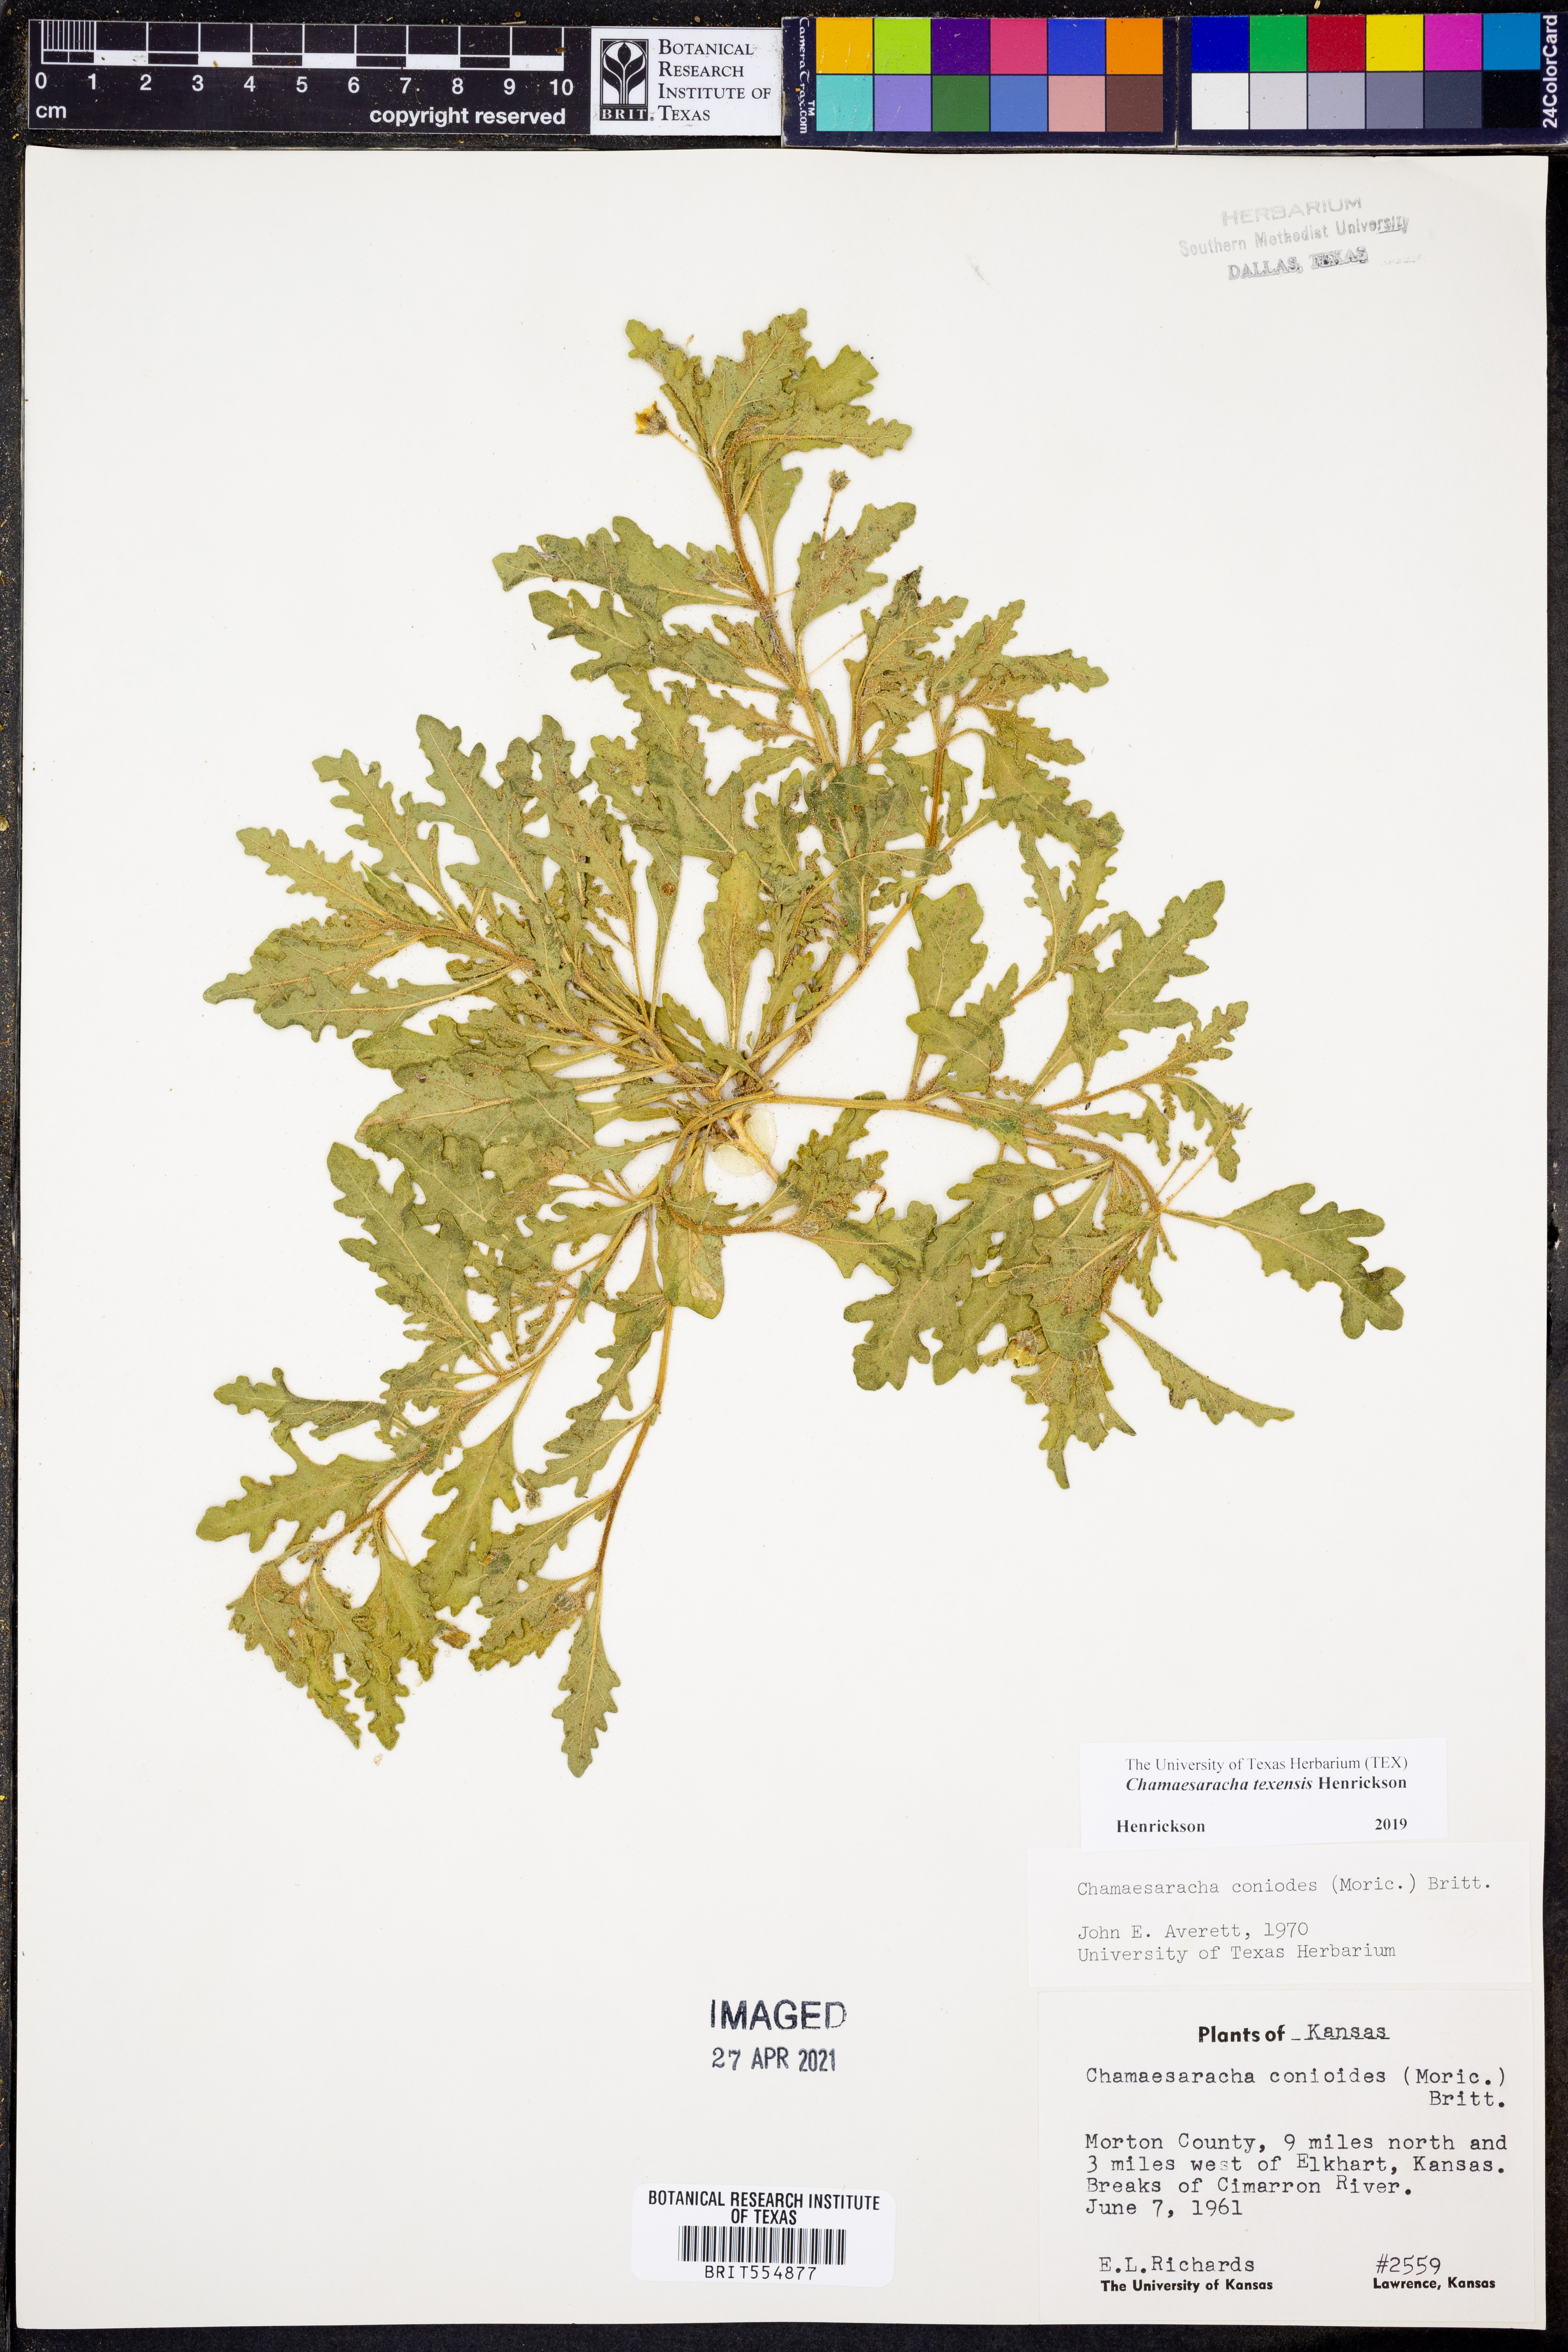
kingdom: Plantae
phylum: Tracheophyta
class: Magnoliopsida
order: Solanales
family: Solanaceae
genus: Chamaesaracha
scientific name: Chamaesaracha texensis
